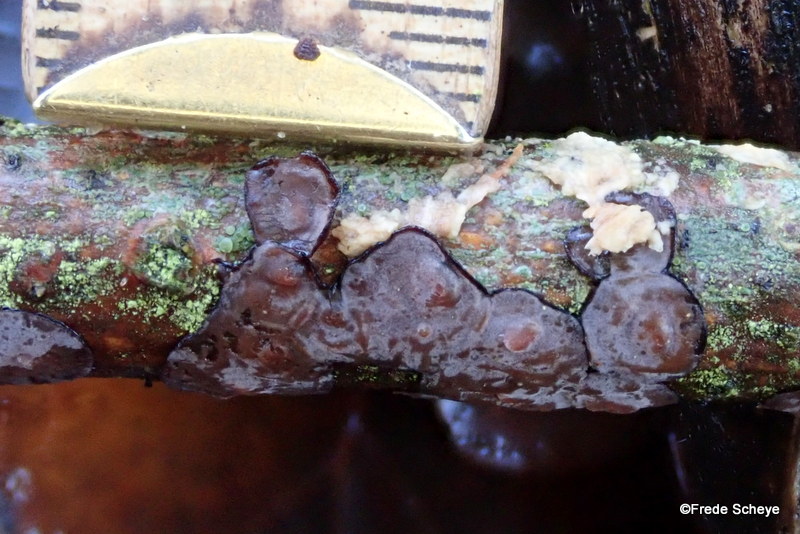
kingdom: Fungi
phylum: Basidiomycota
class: Agaricomycetes
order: Russulales
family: Peniophoraceae
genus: Peniophora
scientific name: Peniophora quercina
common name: ege-voksskind
